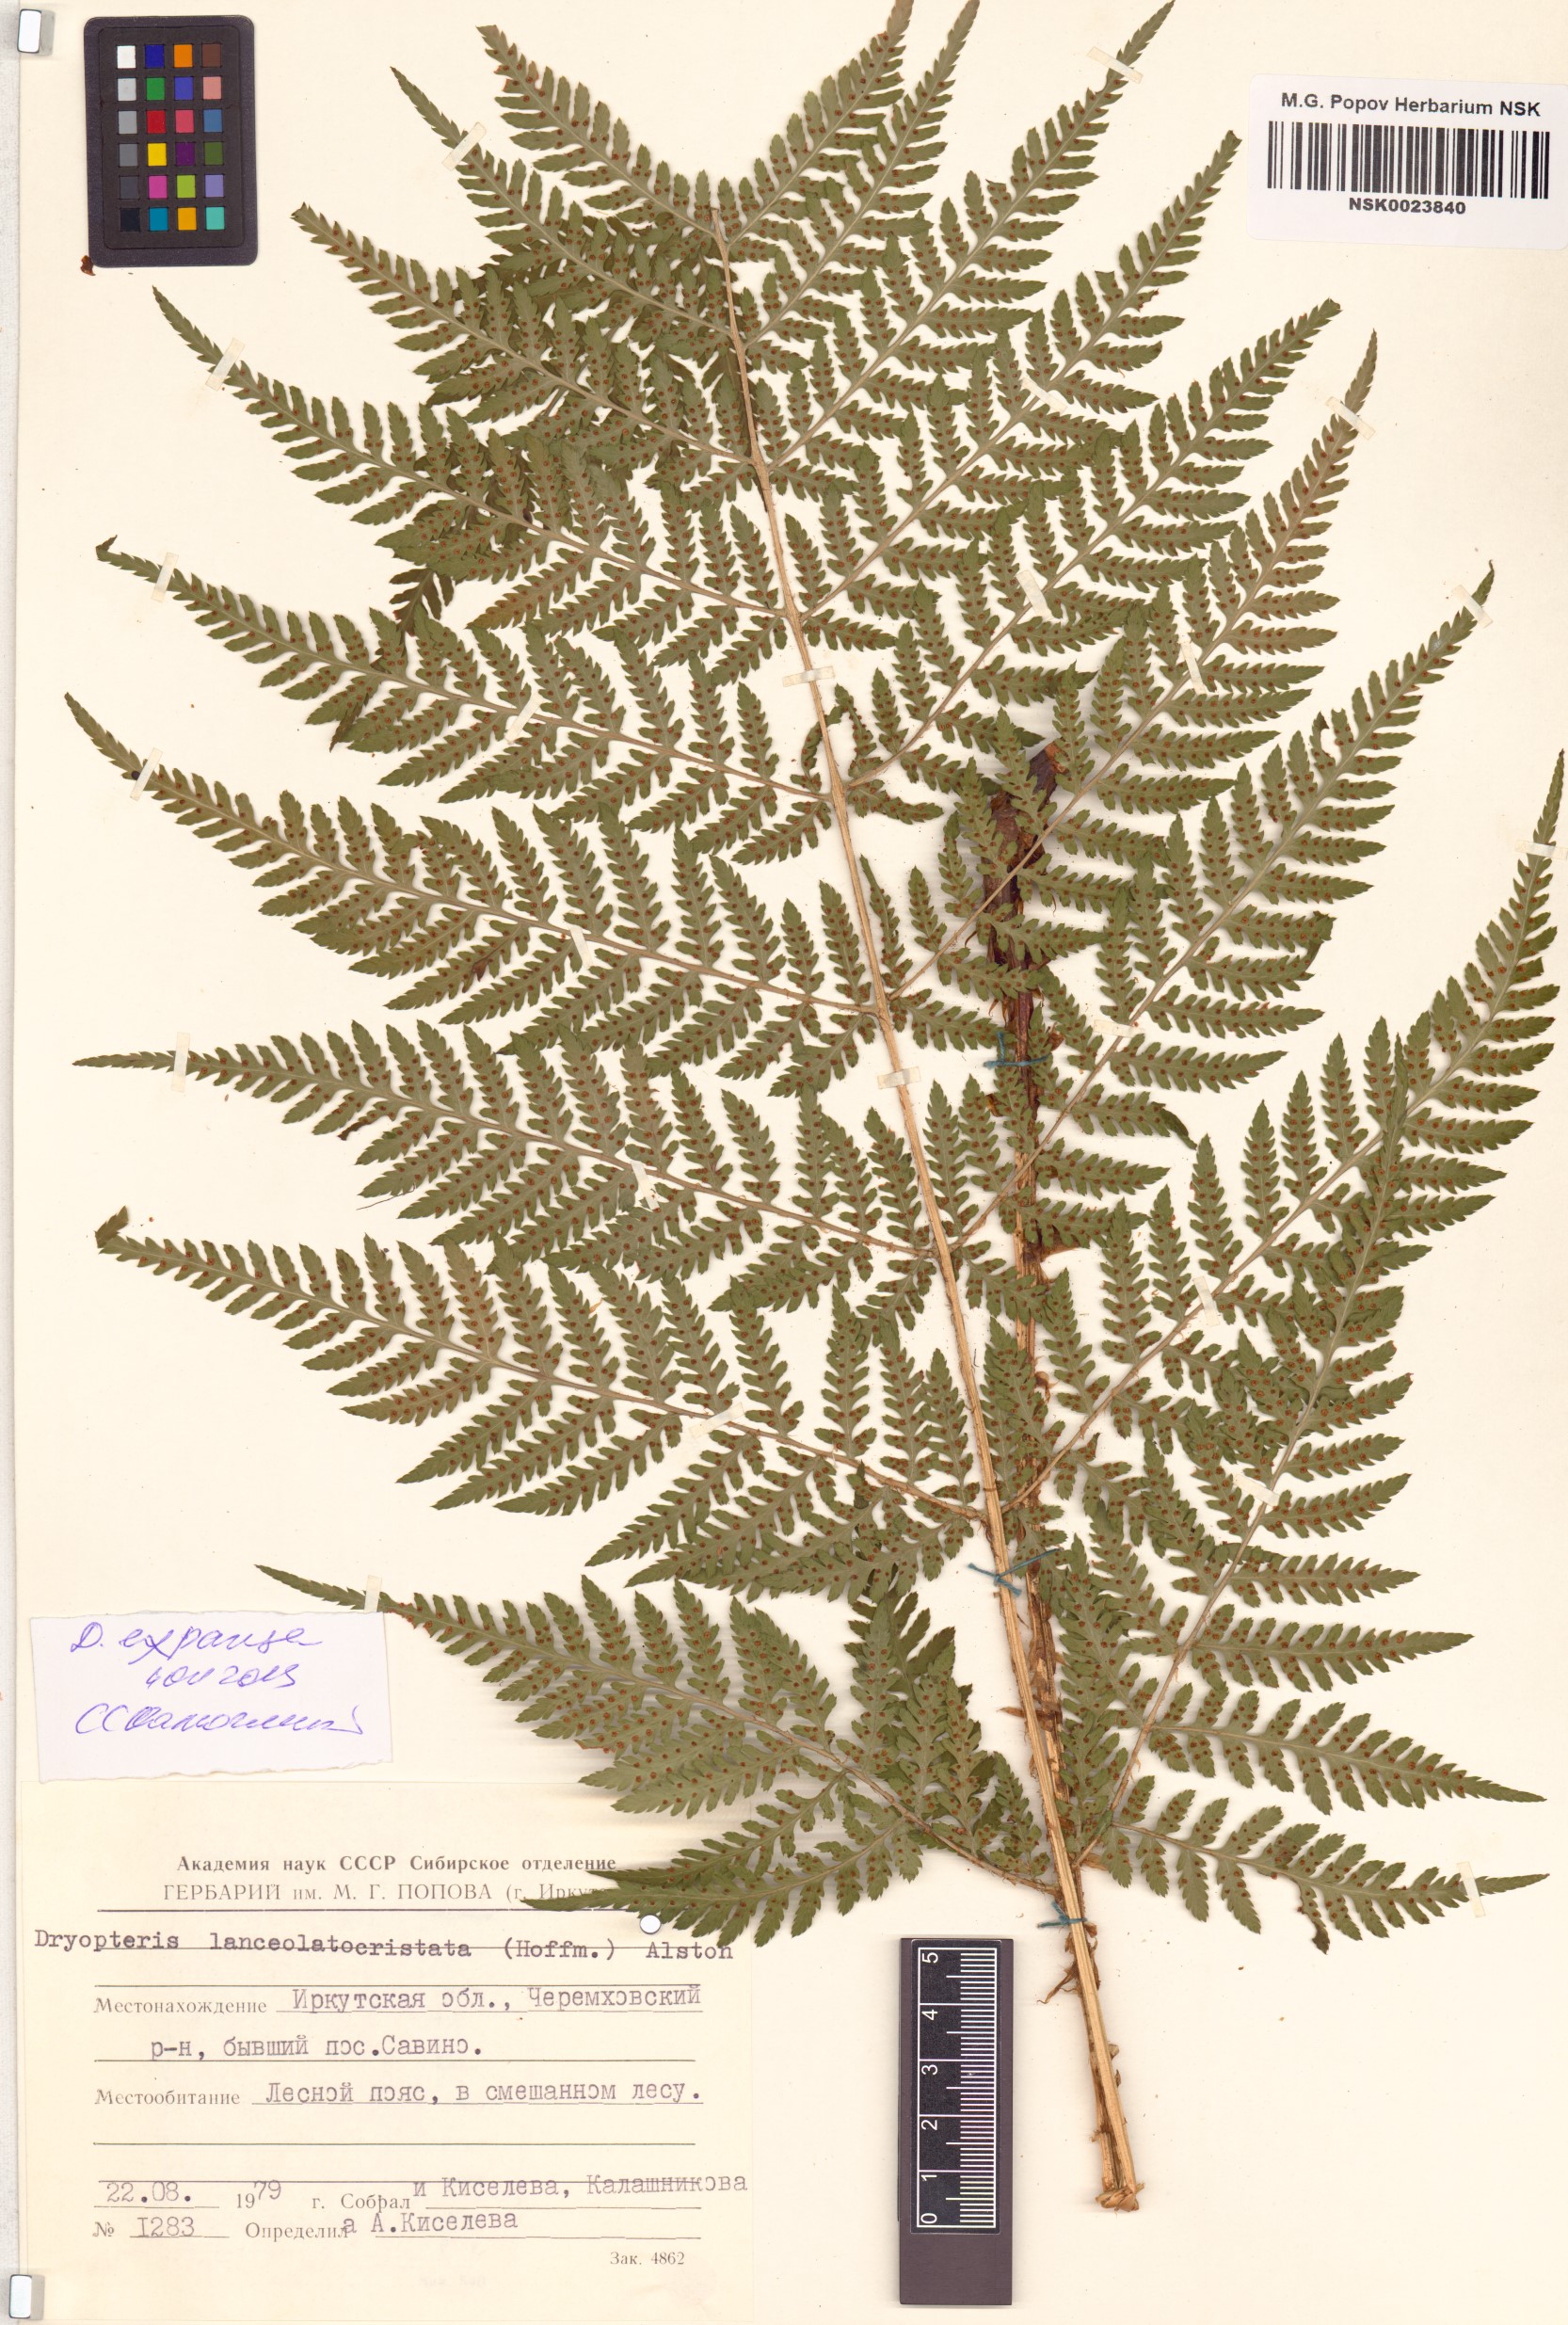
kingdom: Plantae
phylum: Tracheophyta
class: Polypodiopsida
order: Polypodiales
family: Dryopteridaceae
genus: Dryopteris
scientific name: Dryopteris expansa
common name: Northern buckler fern
